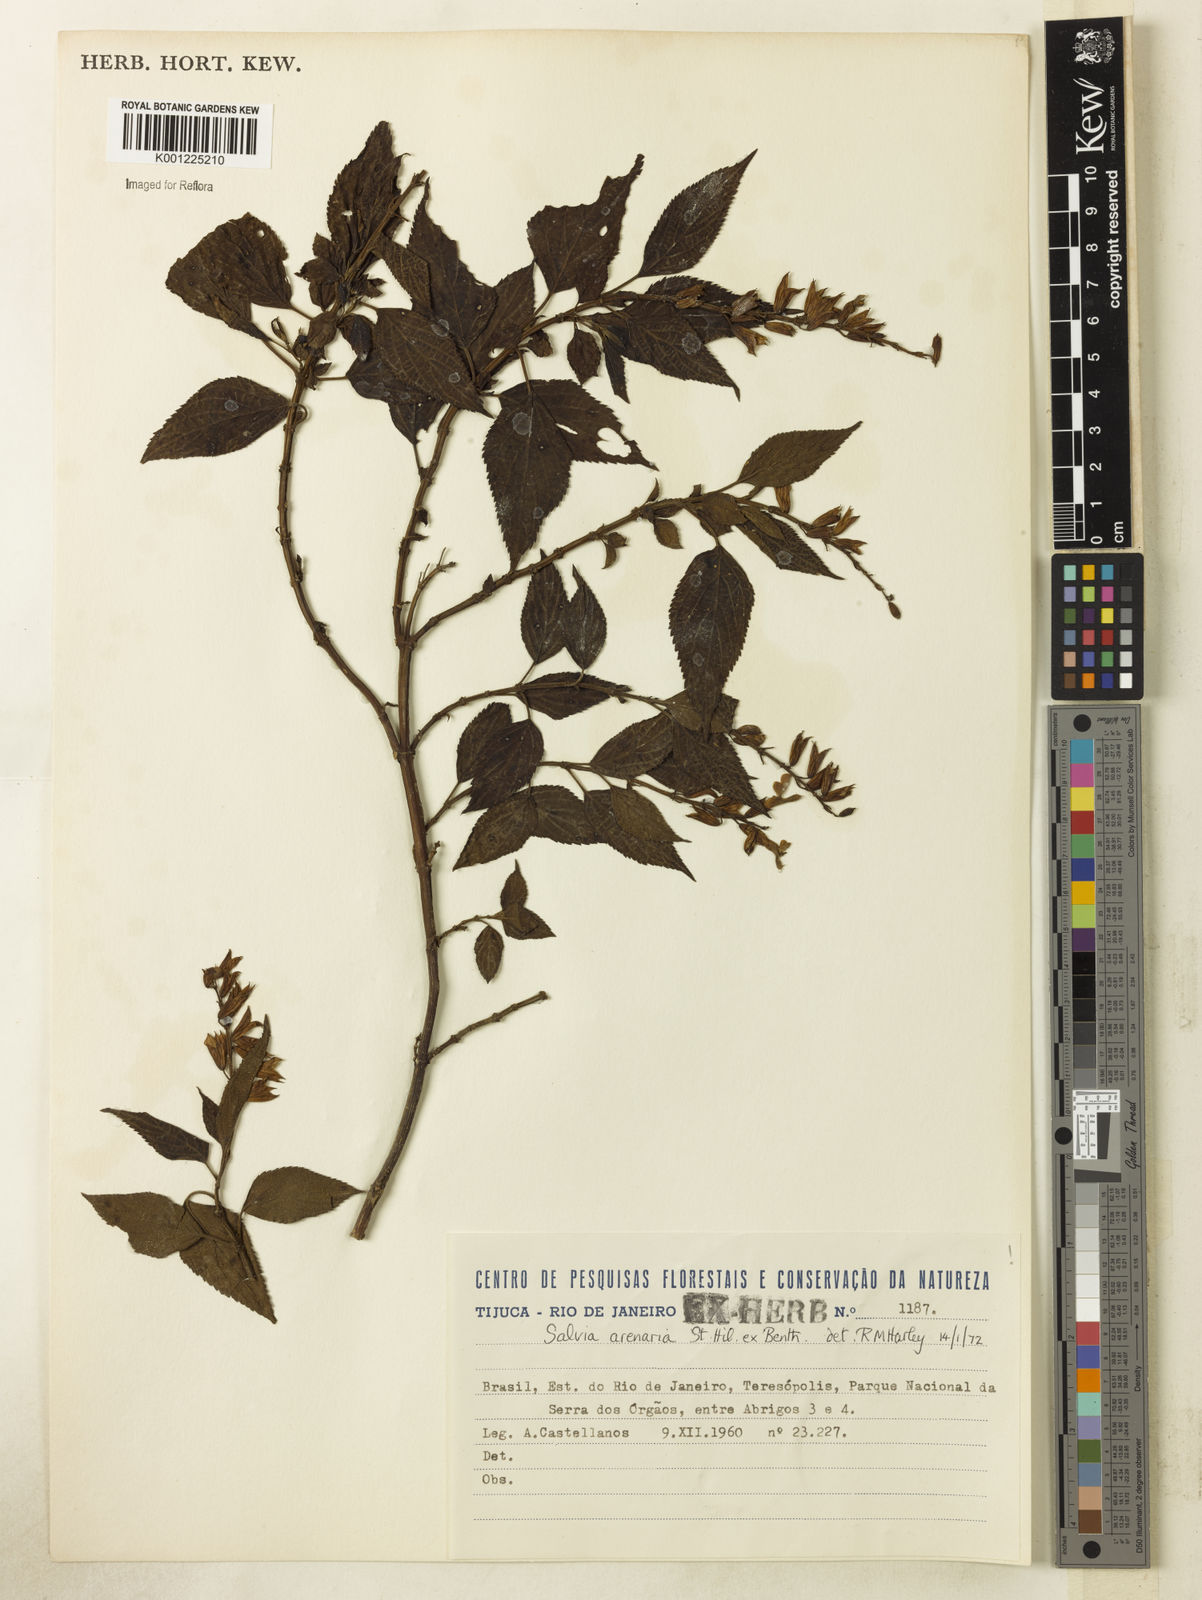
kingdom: Plantae
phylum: Tracheophyta
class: Magnoliopsida
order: Lamiales
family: Lamiaceae
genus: Salvia
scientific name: Salvia arenaria
